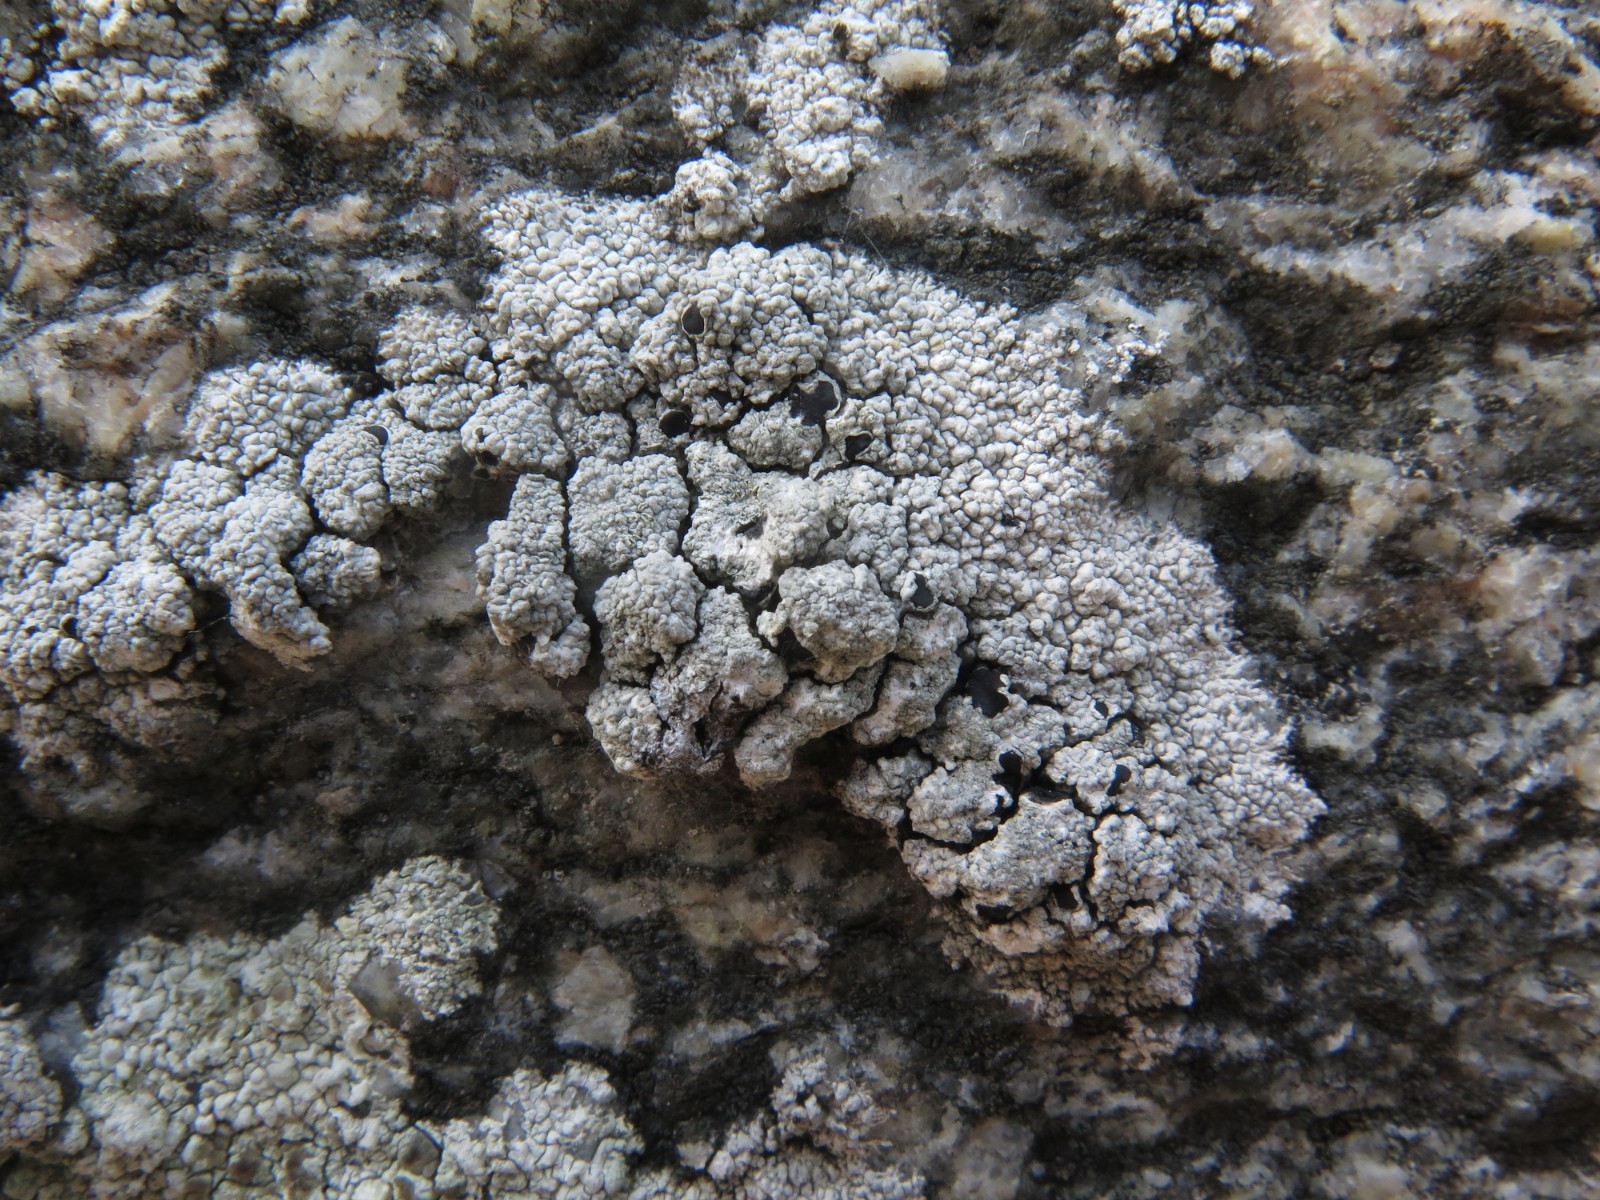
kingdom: Fungi
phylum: Ascomycota
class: Lecanoromycetes
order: Lecanorales
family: Tephromelataceae
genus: Tephromela
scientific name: Tephromela atra
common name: sortfrugtet kantskivelav
